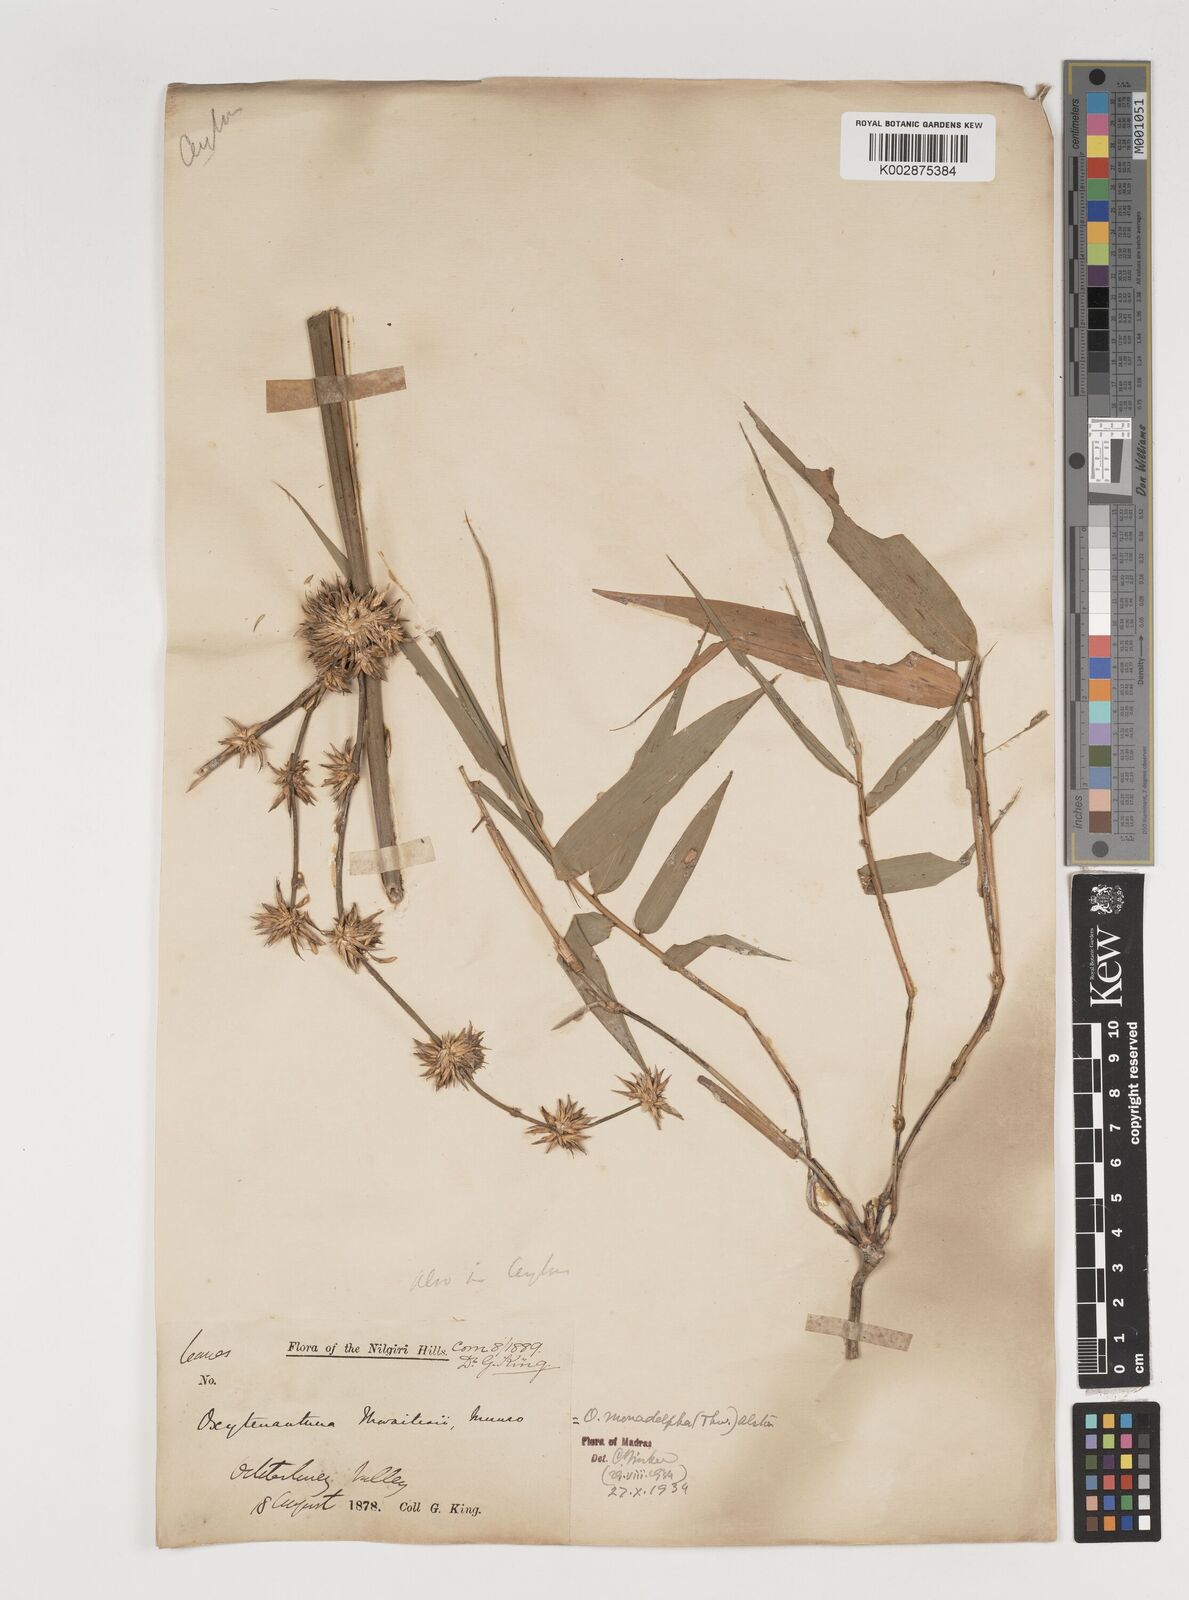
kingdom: Plantae
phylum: Tracheophyta
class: Liliopsida
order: Poales
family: Poaceae
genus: Pseudoxytenanthera
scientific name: Pseudoxytenanthera monadelpha
